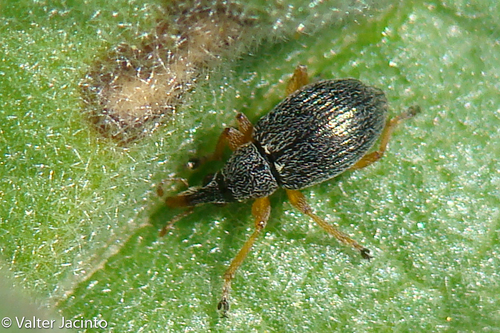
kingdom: Animalia
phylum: Arthropoda
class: Insecta
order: Coleoptera
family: Apionidae
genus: Pseudapion
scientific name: Pseudapion fulvirostre
